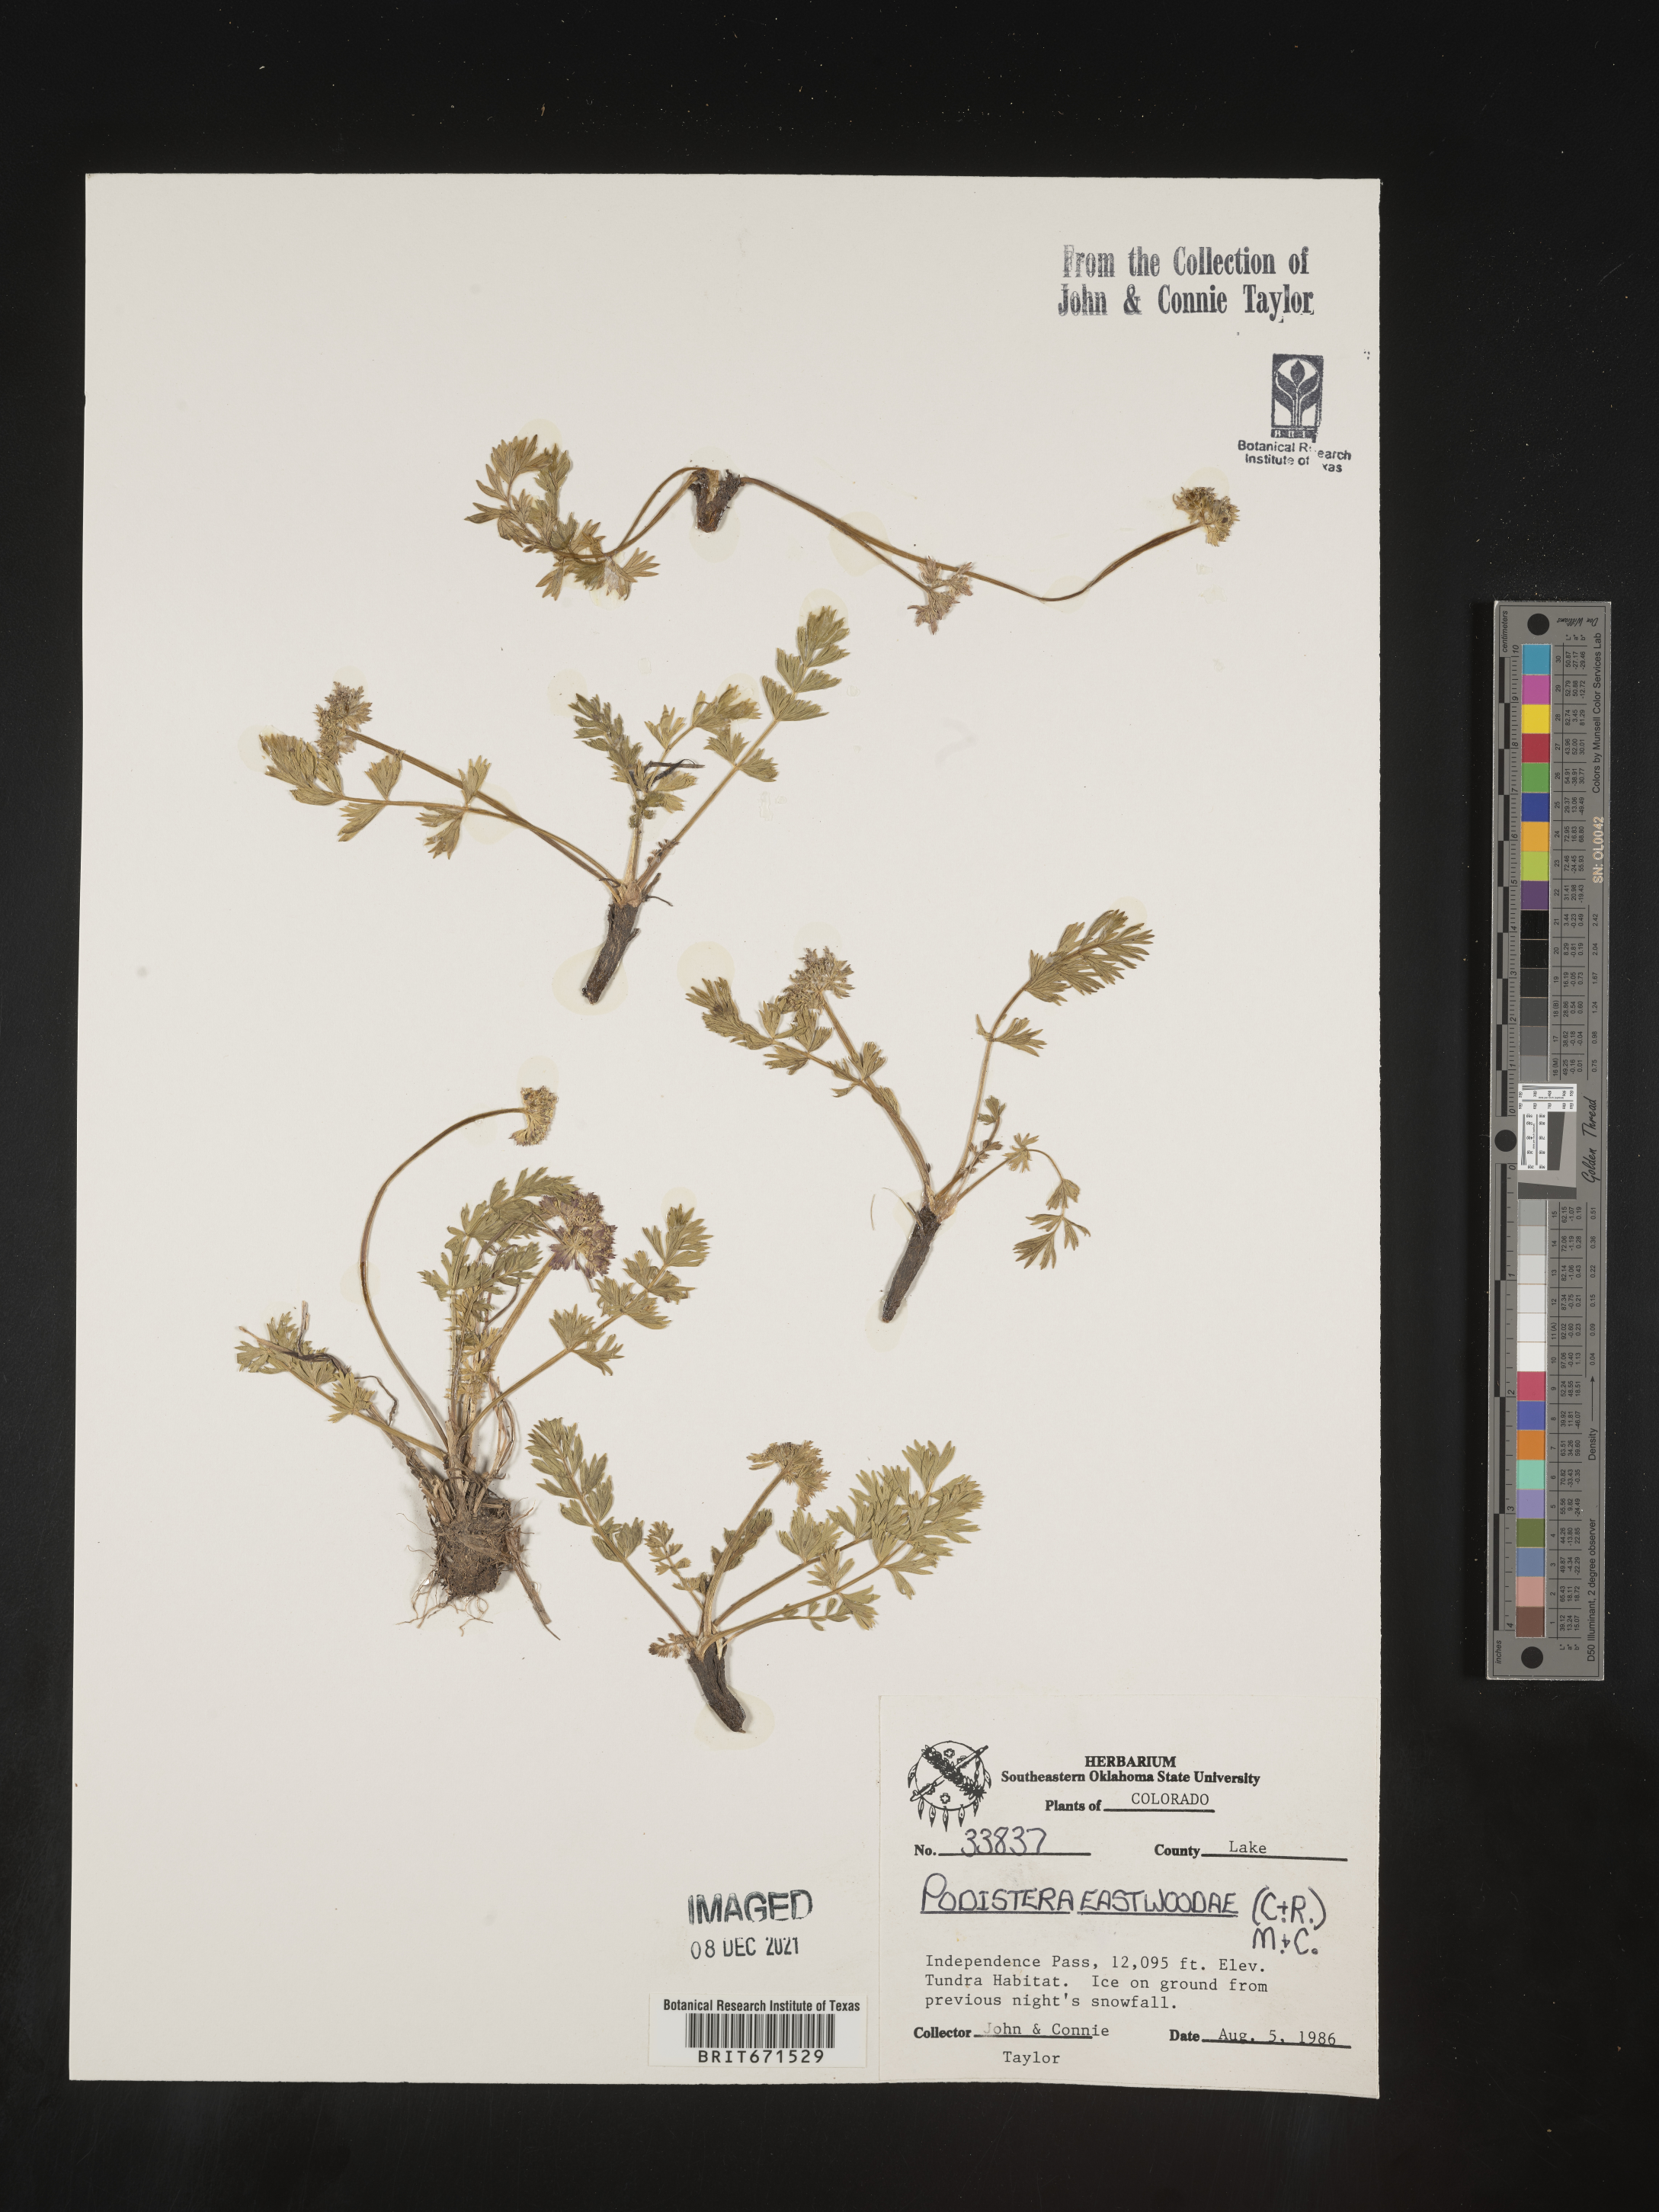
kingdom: Plantae
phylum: Tracheophyta
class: Magnoliopsida
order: Apiales
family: Apiaceae
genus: Podistera
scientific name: Podistera
